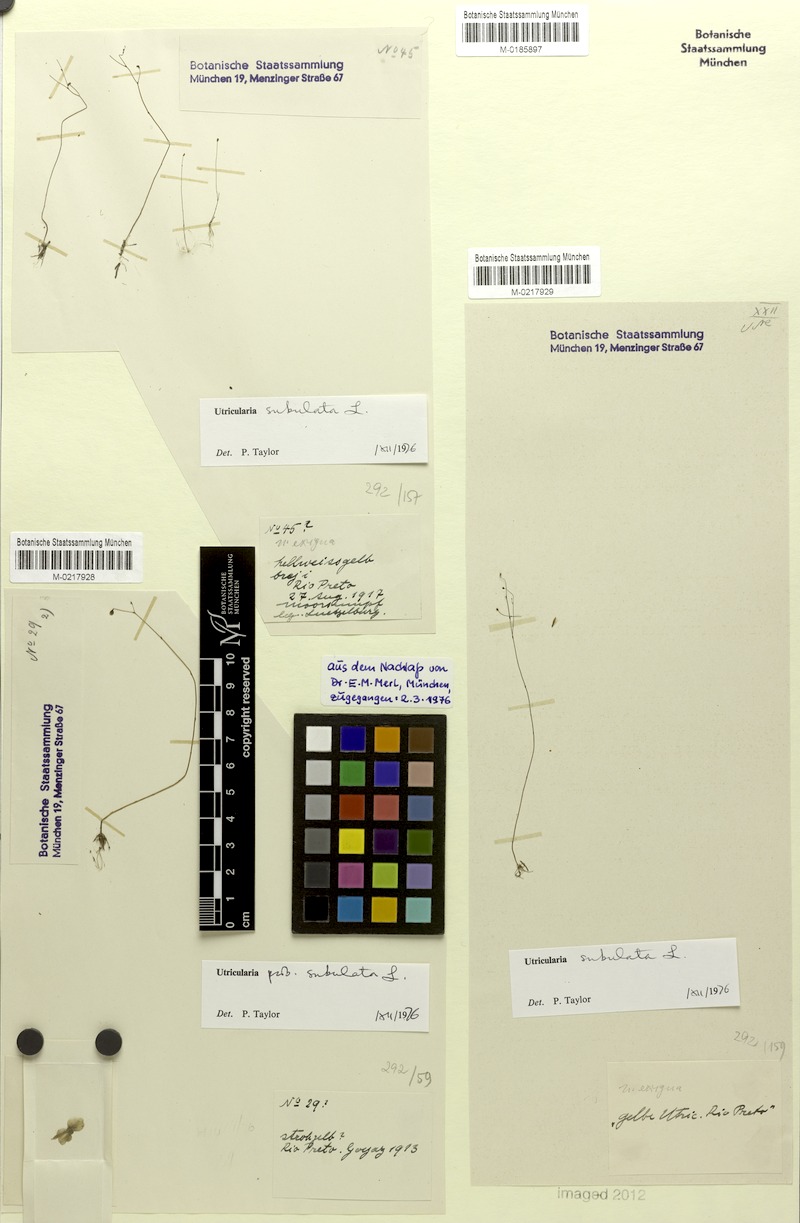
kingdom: Plantae
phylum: Tracheophyta
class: Magnoliopsida
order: Lamiales
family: Lentibulariaceae
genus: Utricularia
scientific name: Utricularia subulata
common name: Tiny bladderwort
